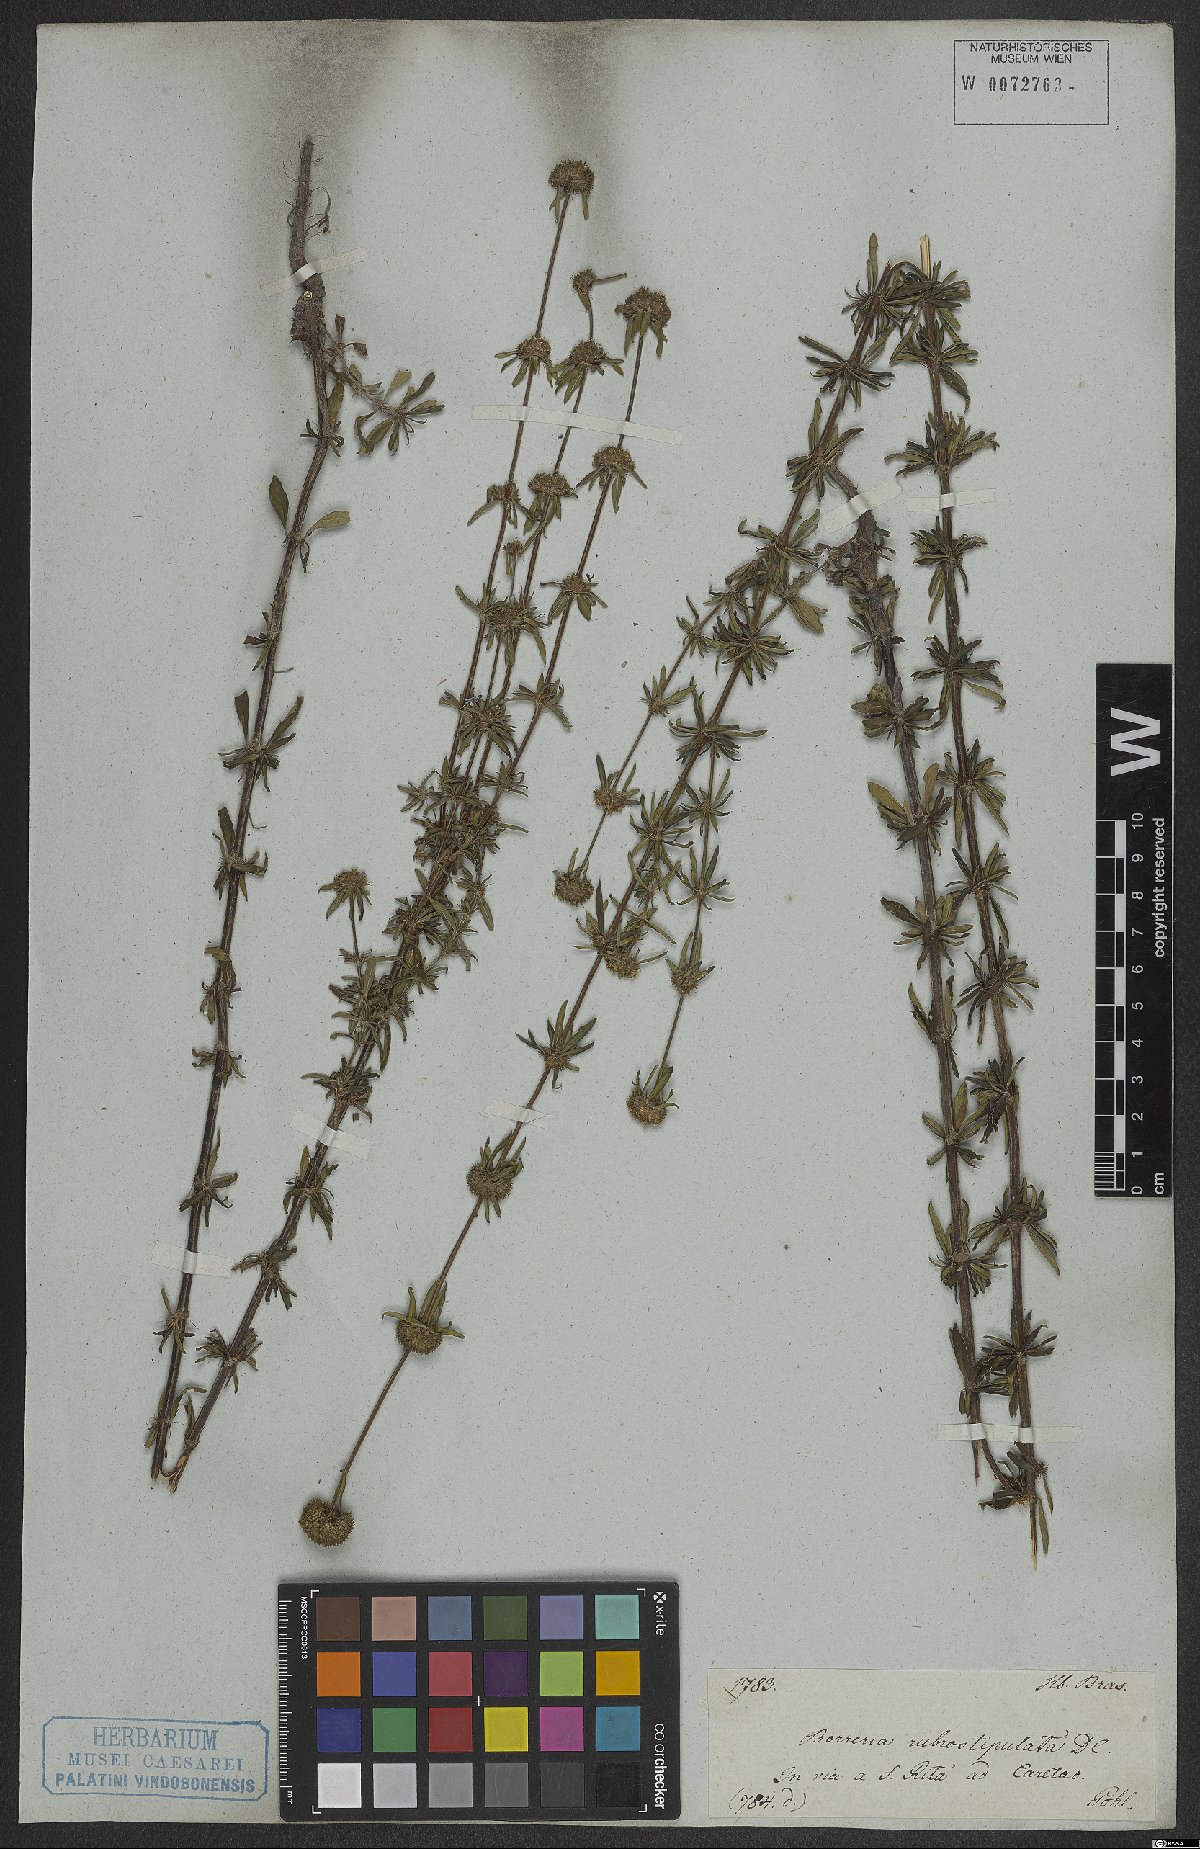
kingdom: Plantae
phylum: Tracheophyta
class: Magnoliopsida
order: Gentianales
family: Rubiaceae
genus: Spermacoce
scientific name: Spermacoce orinocensis
